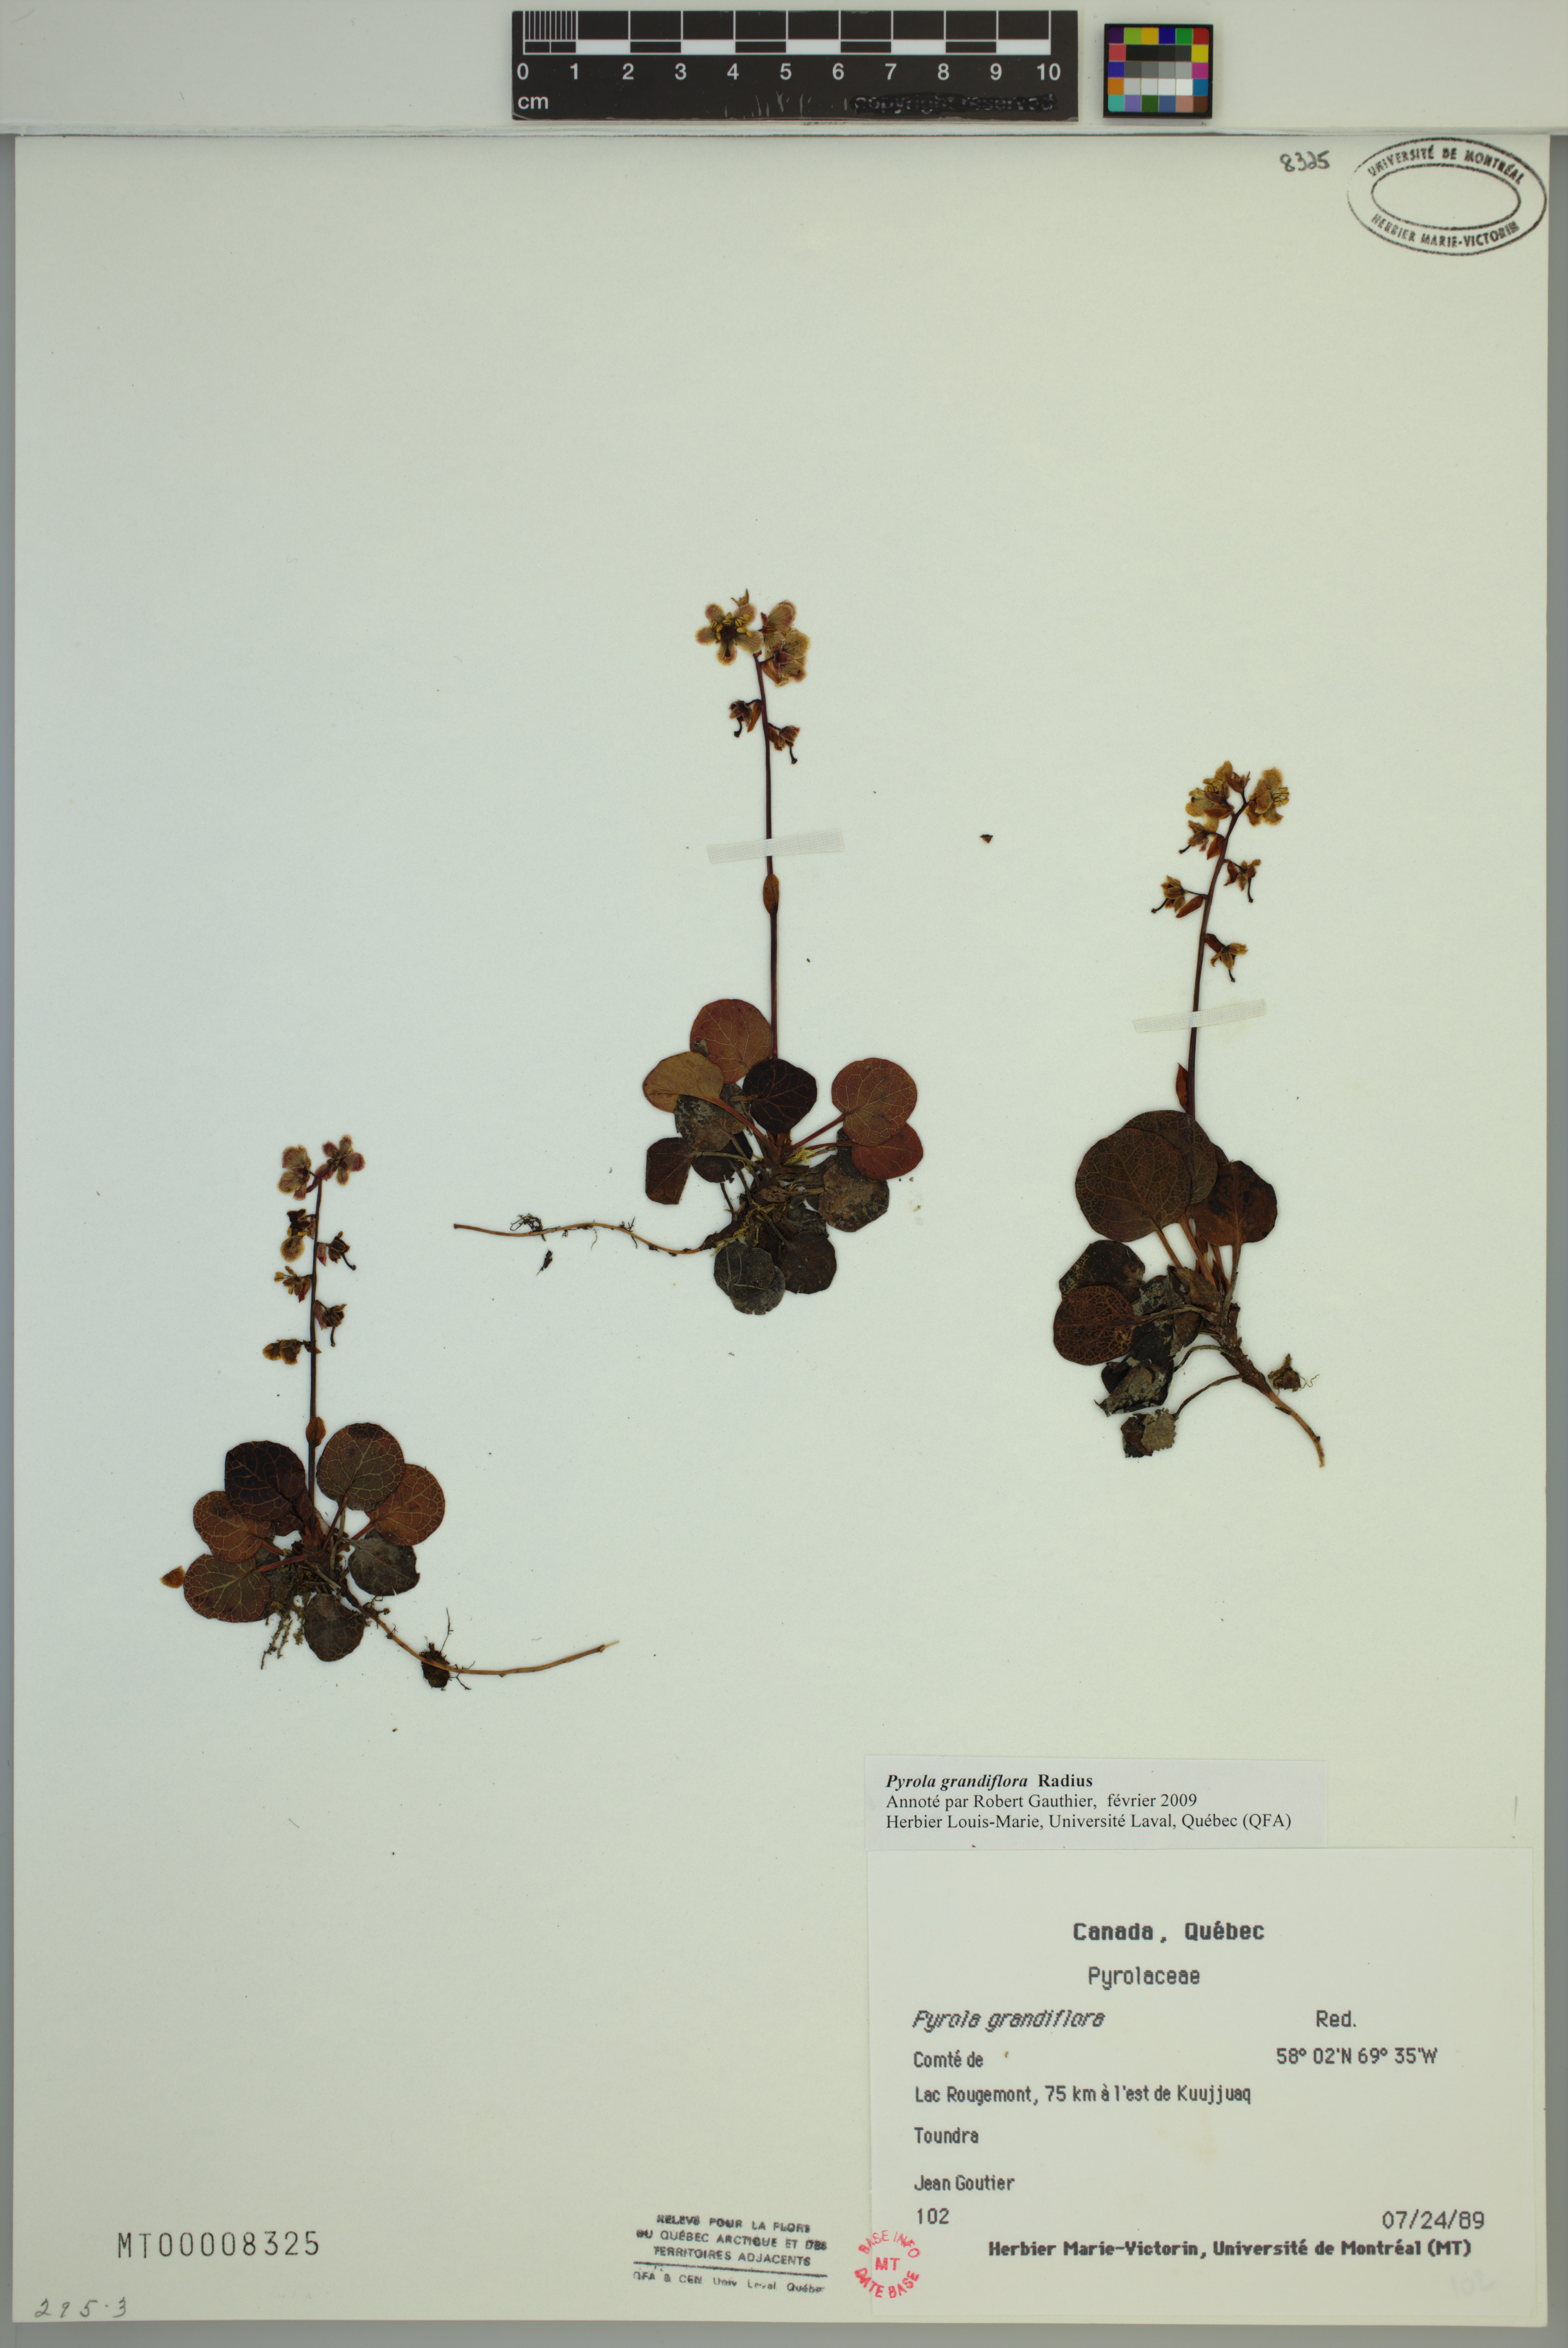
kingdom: Plantae
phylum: Tracheophyta
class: Magnoliopsida
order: Ericales
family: Ericaceae
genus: Pyrola
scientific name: Pyrola grandiflora
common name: Arctic pyrola
